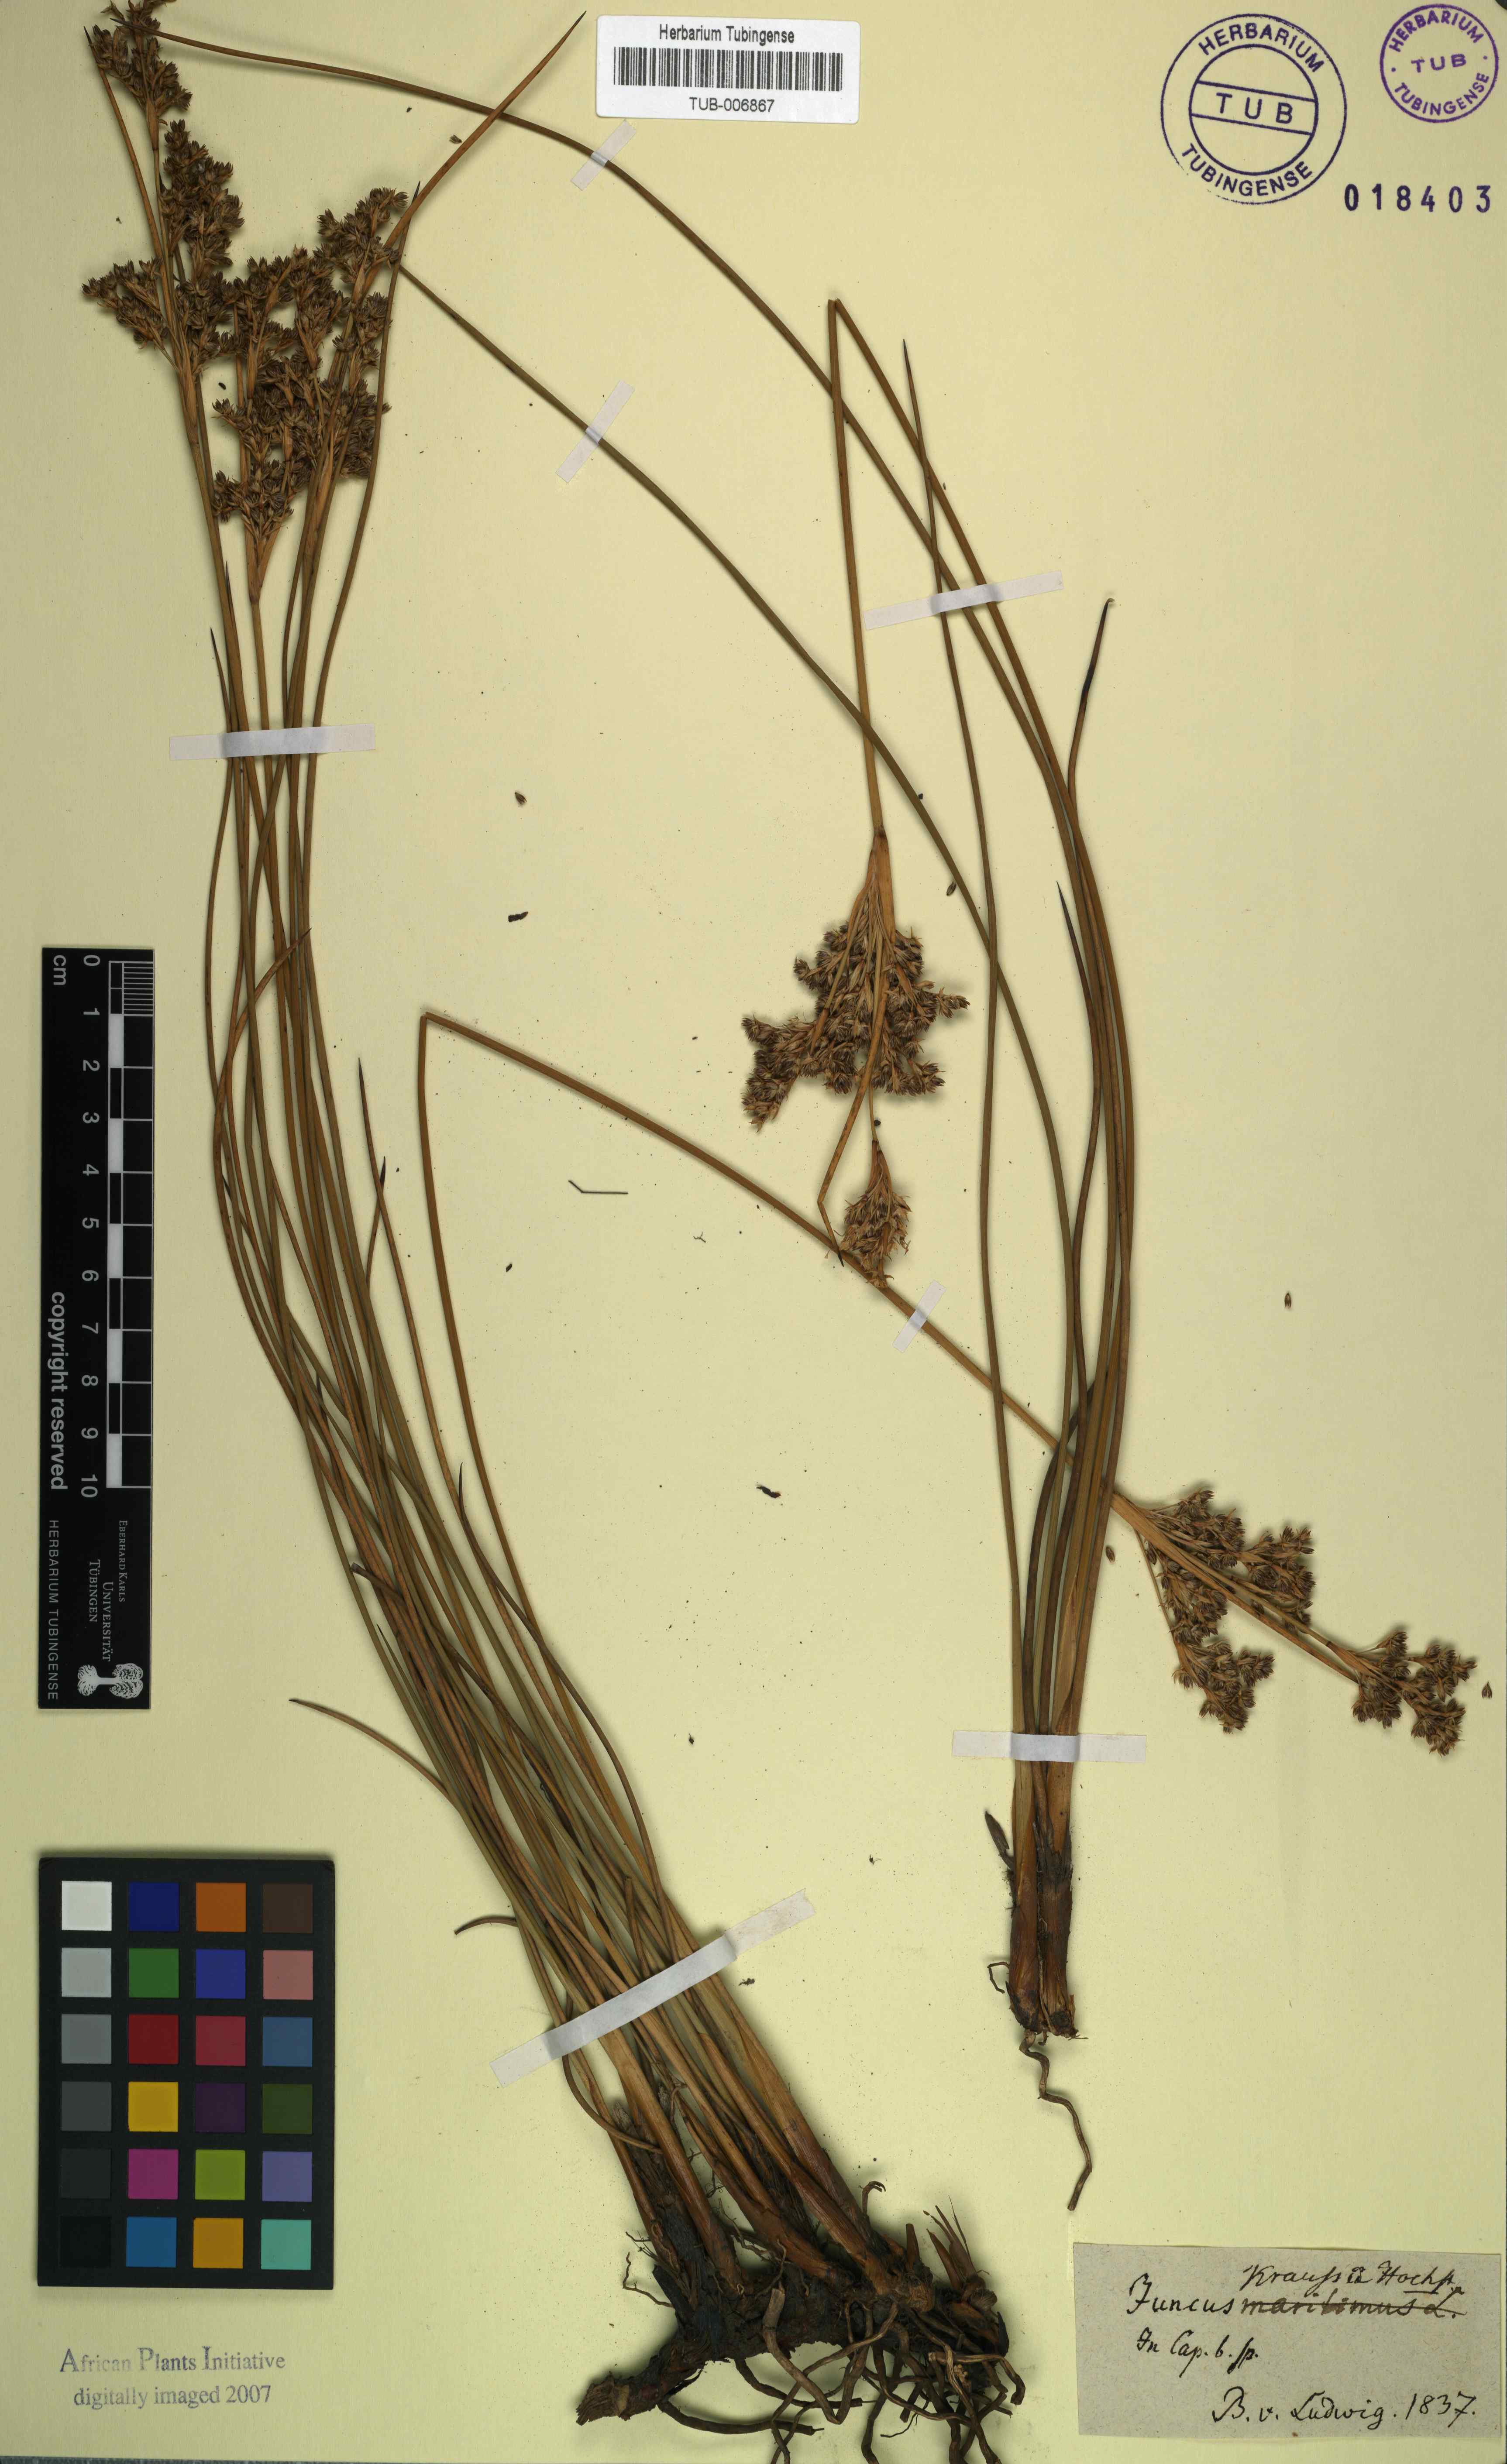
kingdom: Plantae
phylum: Tracheophyta
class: Liliopsida
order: Poales
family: Juncaceae
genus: Juncus
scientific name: Juncus kraussii
